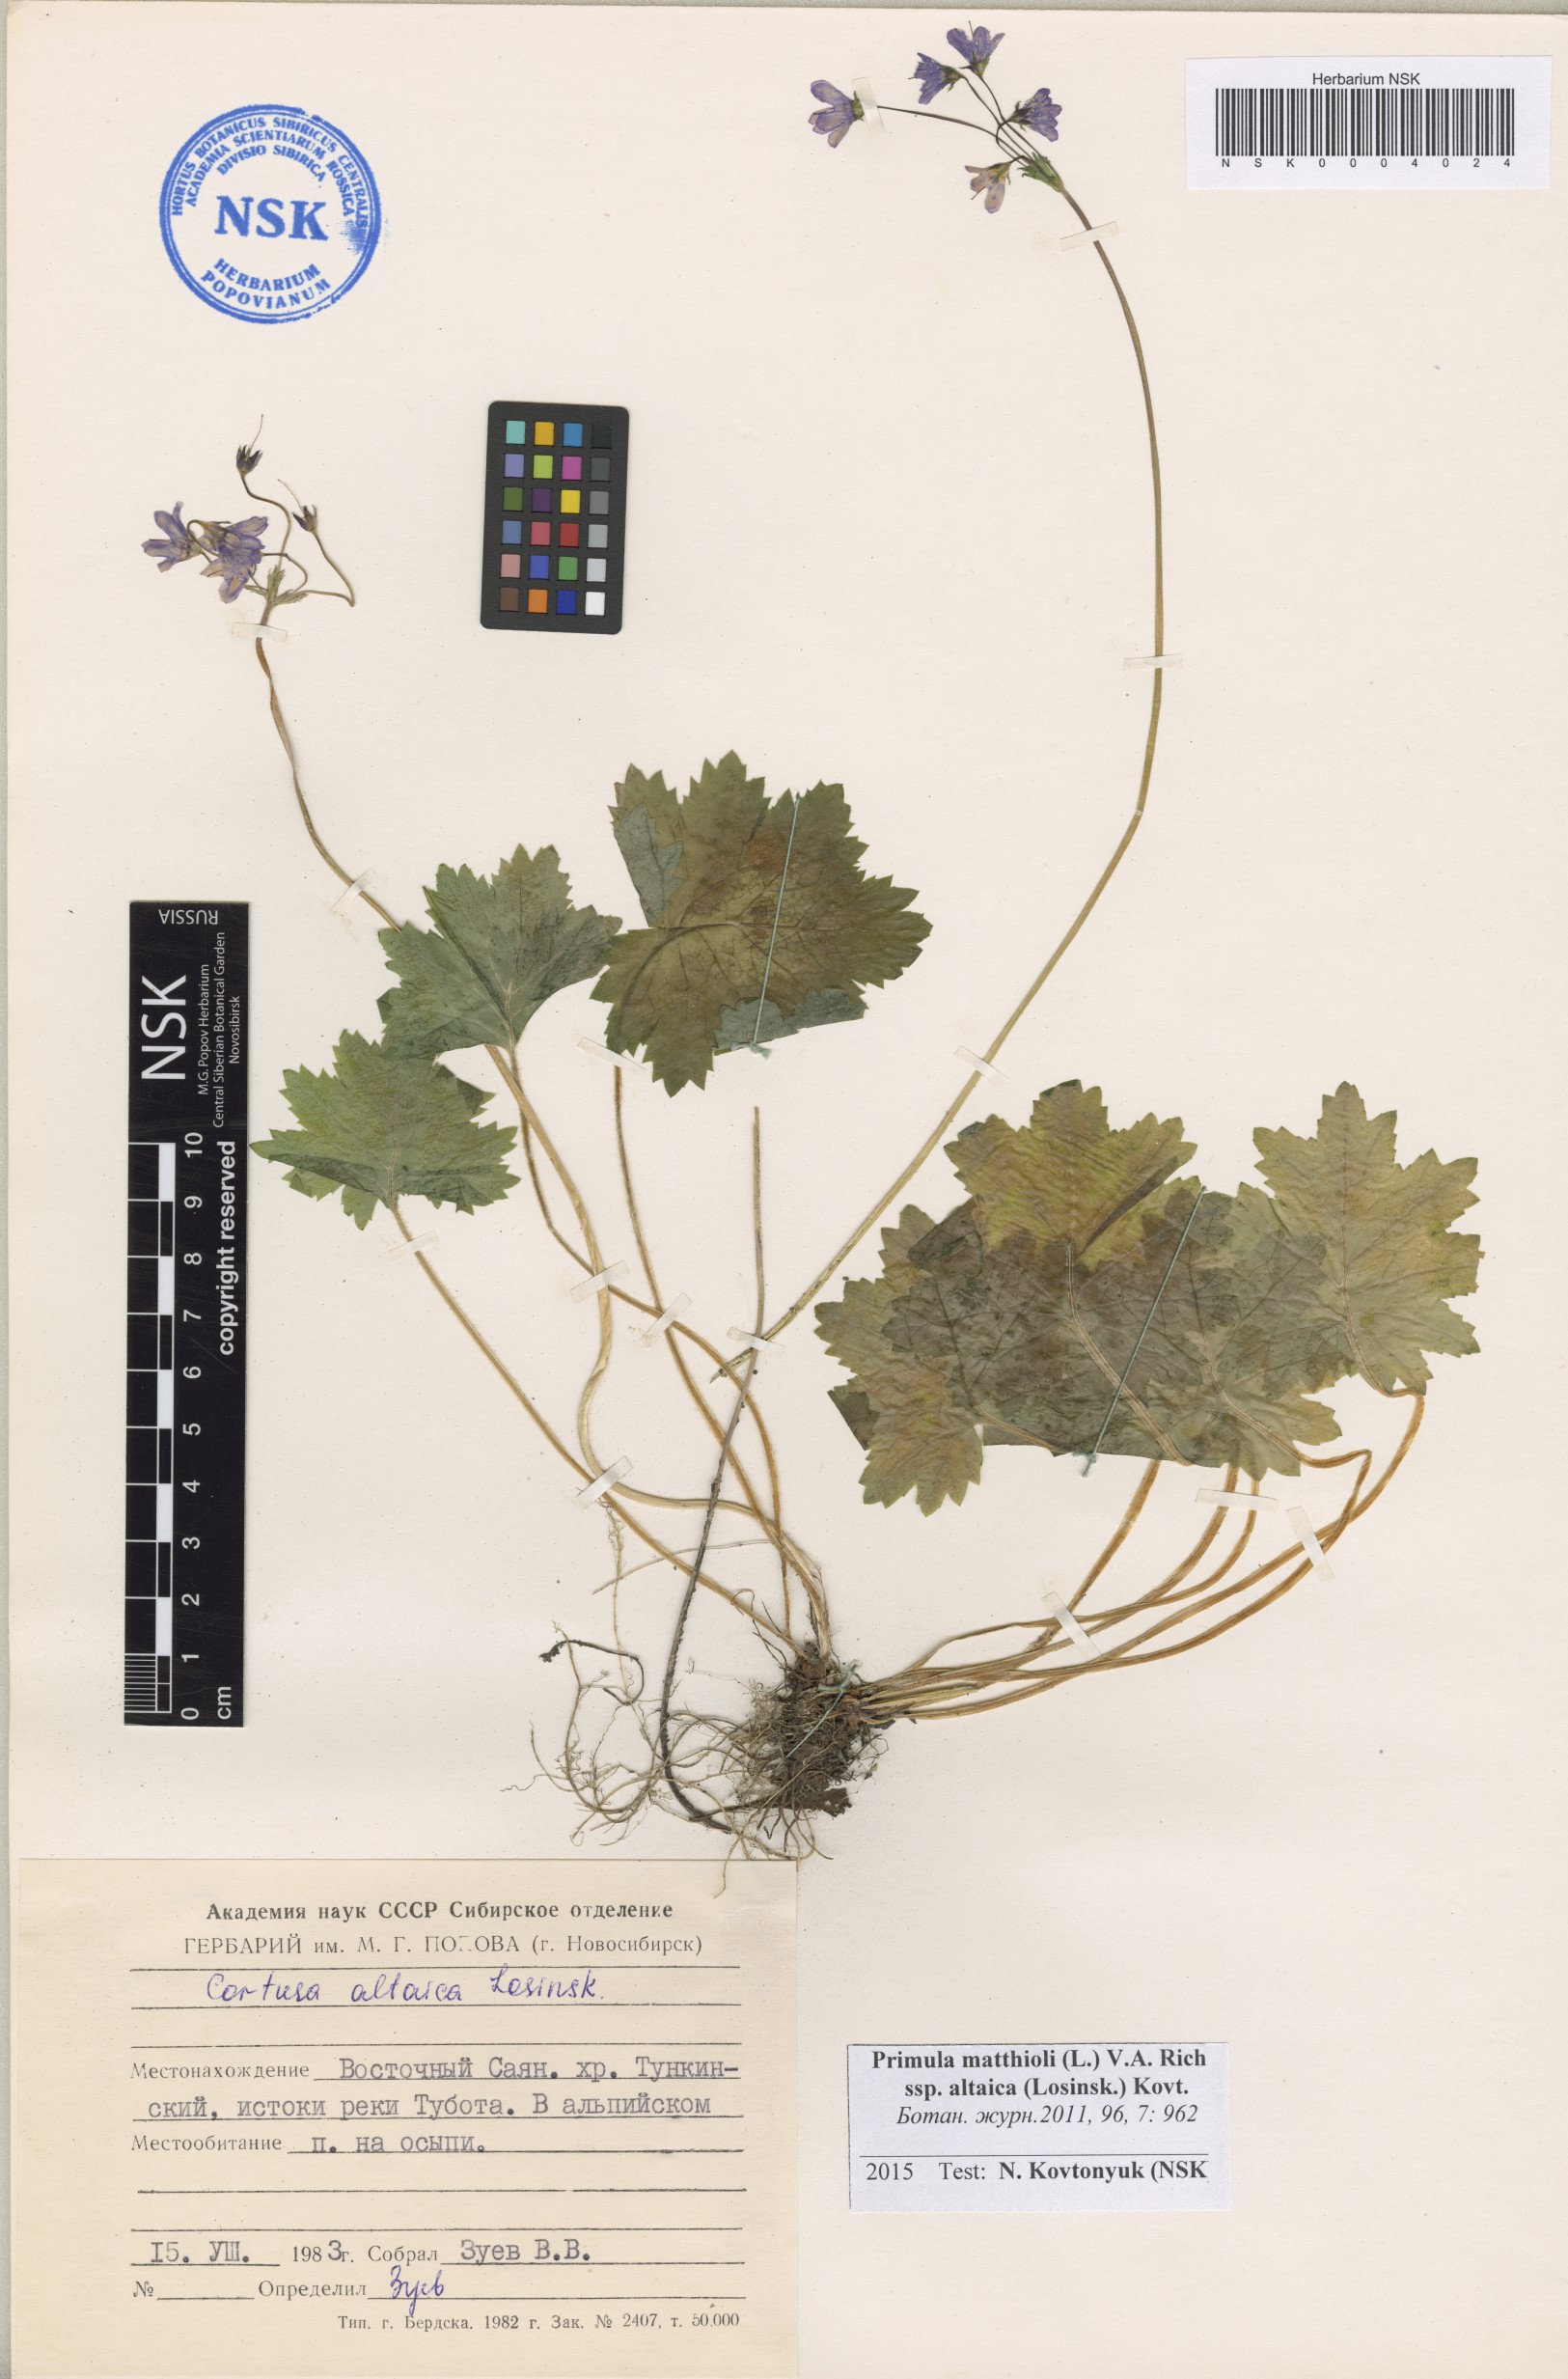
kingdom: Plantae
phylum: Tracheophyta
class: Magnoliopsida
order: Ericales
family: Primulaceae
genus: Primula
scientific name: Primula matthioli
